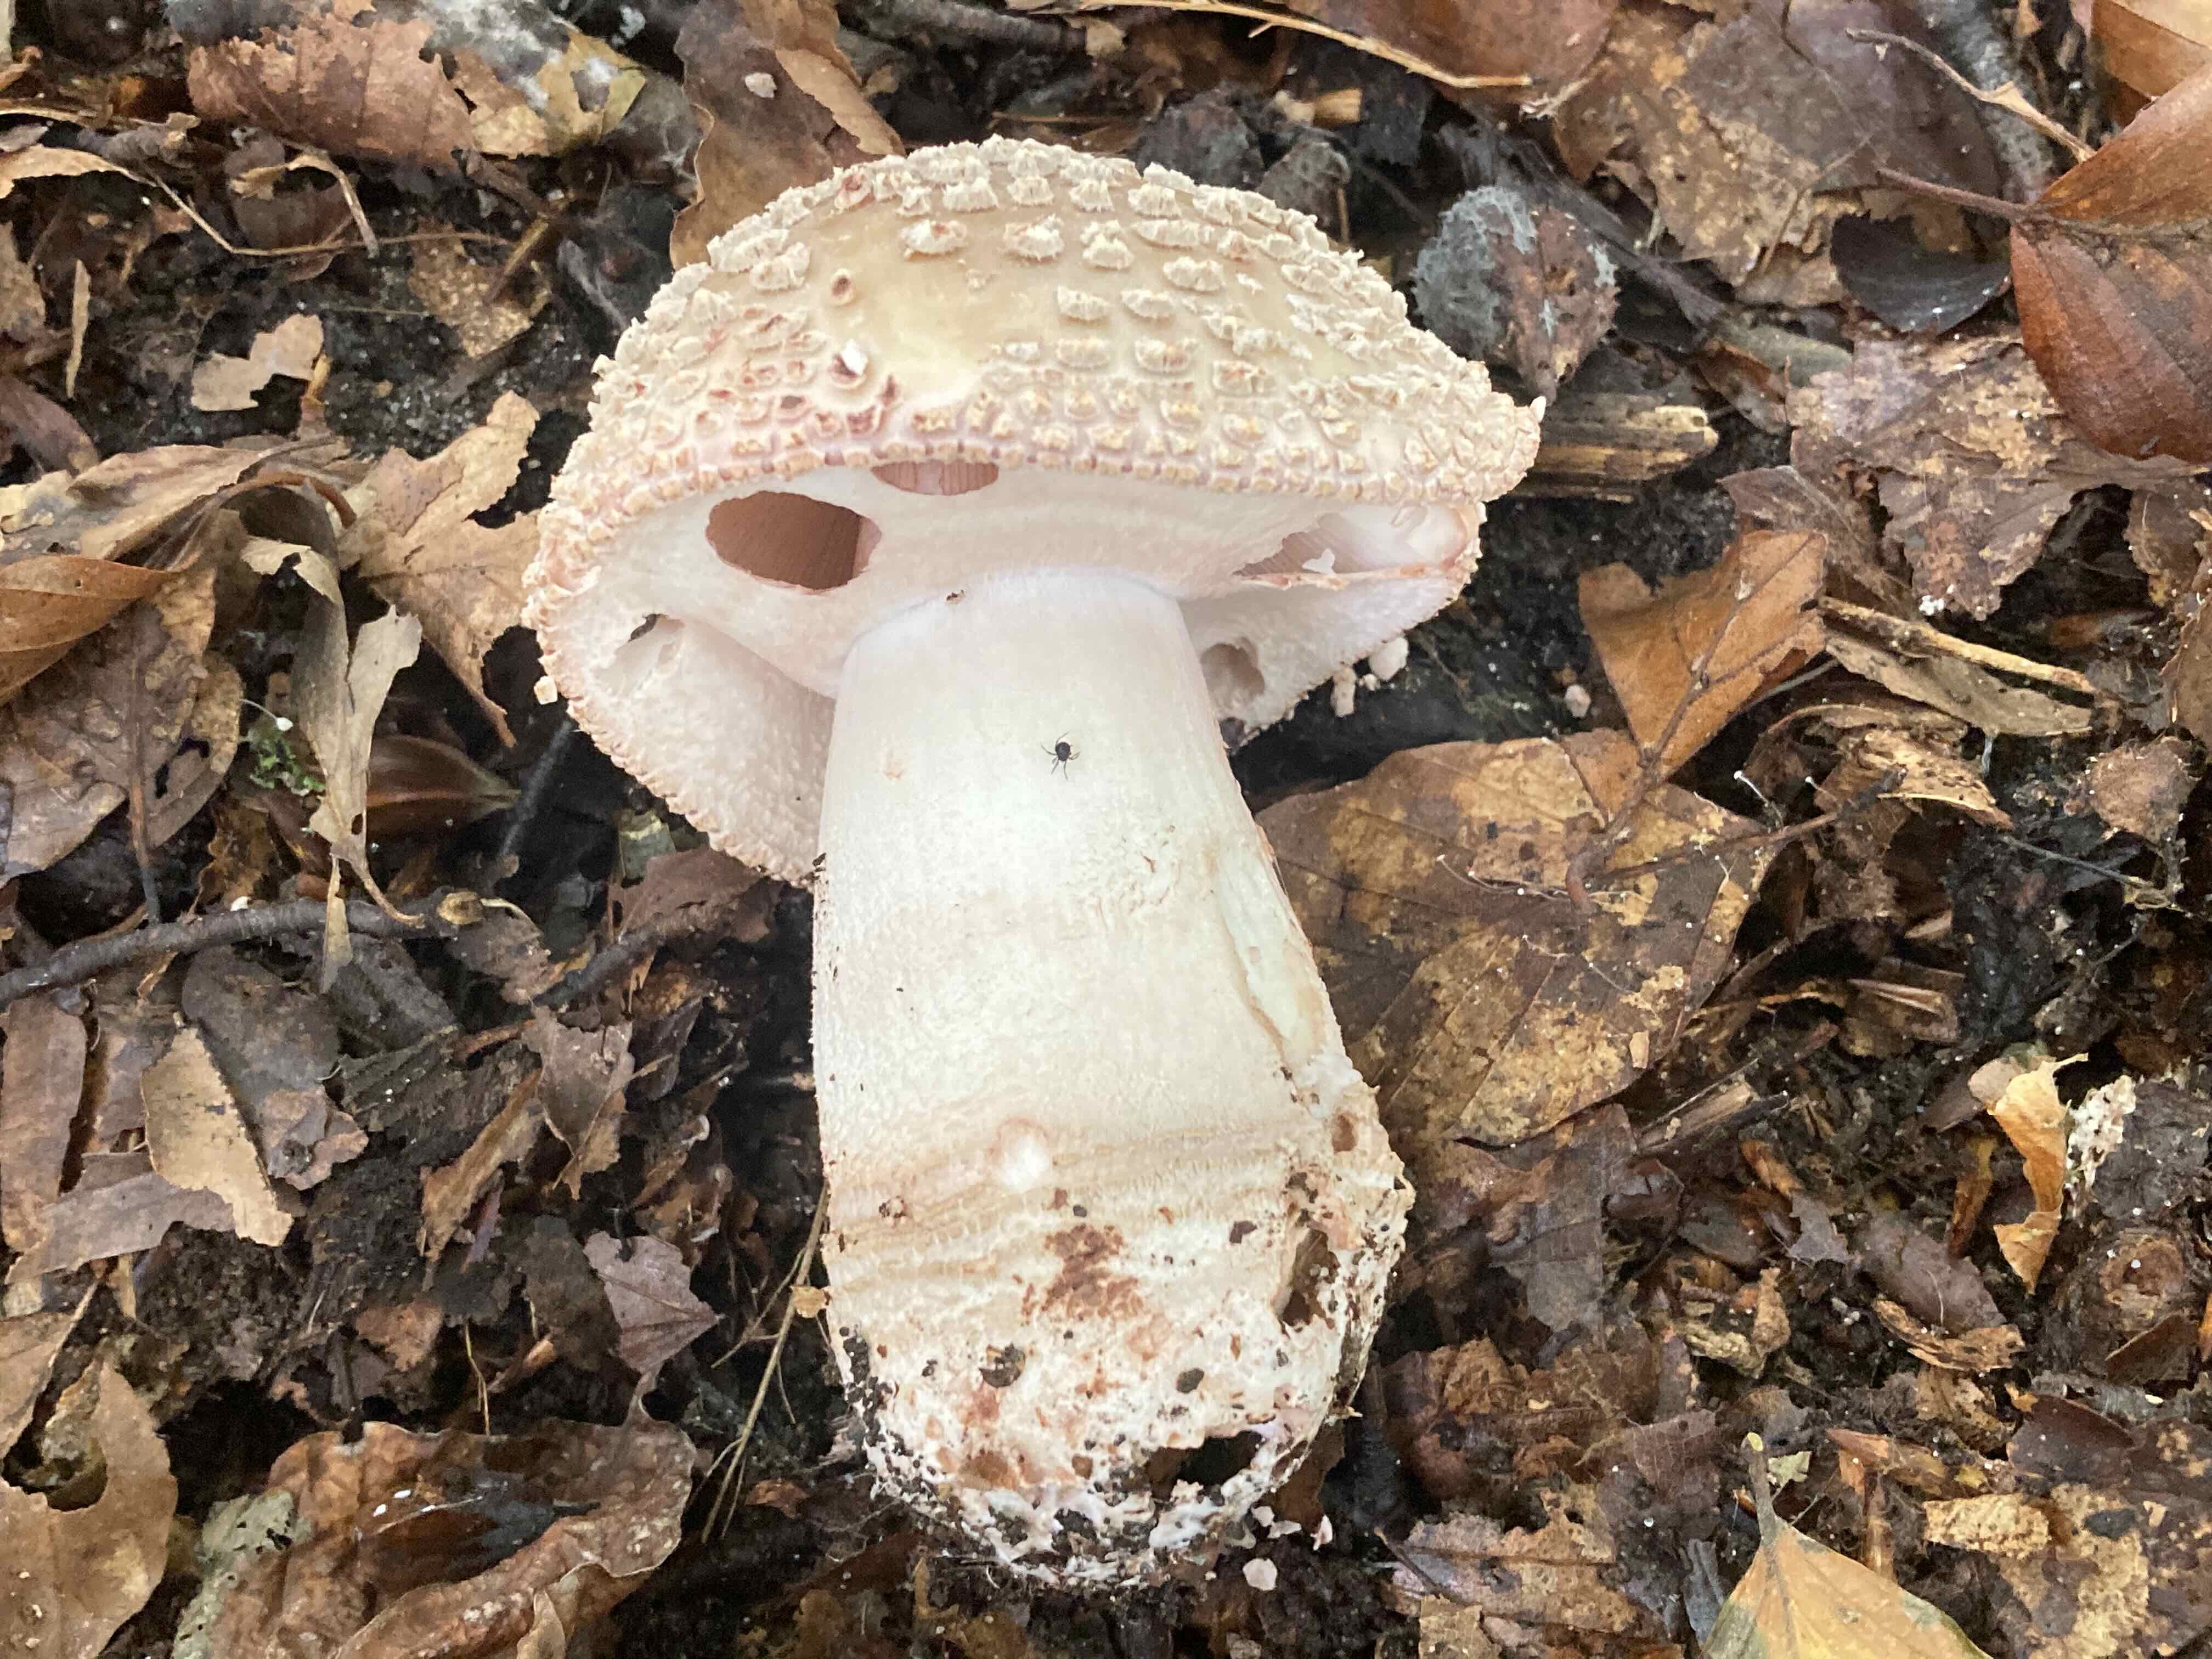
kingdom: Fungi
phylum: Basidiomycota
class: Agaricomycetes
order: Agaricales
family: Amanitaceae
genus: Amanita
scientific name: Amanita rubescens
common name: rødmende fluesvamp
